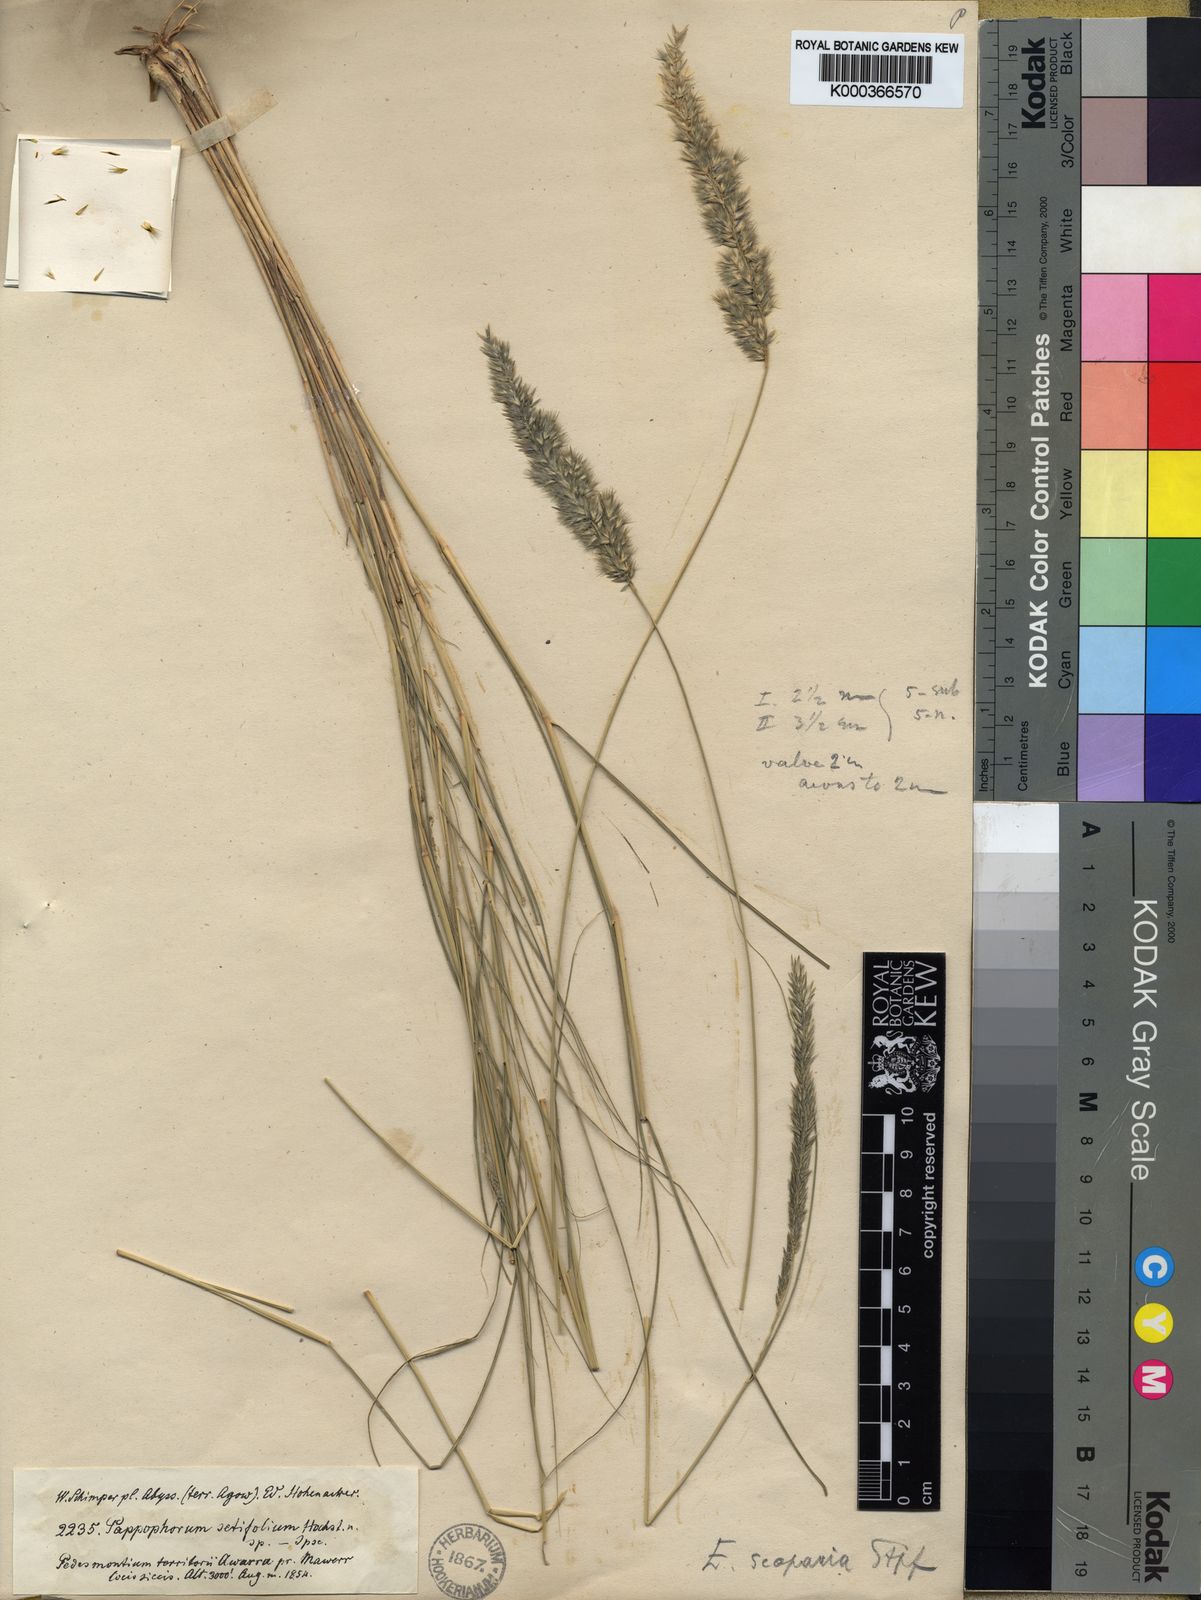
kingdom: Plantae
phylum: Tracheophyta
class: Liliopsida
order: Poales
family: Poaceae
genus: Enneapogon
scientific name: Enneapogon scoparius
